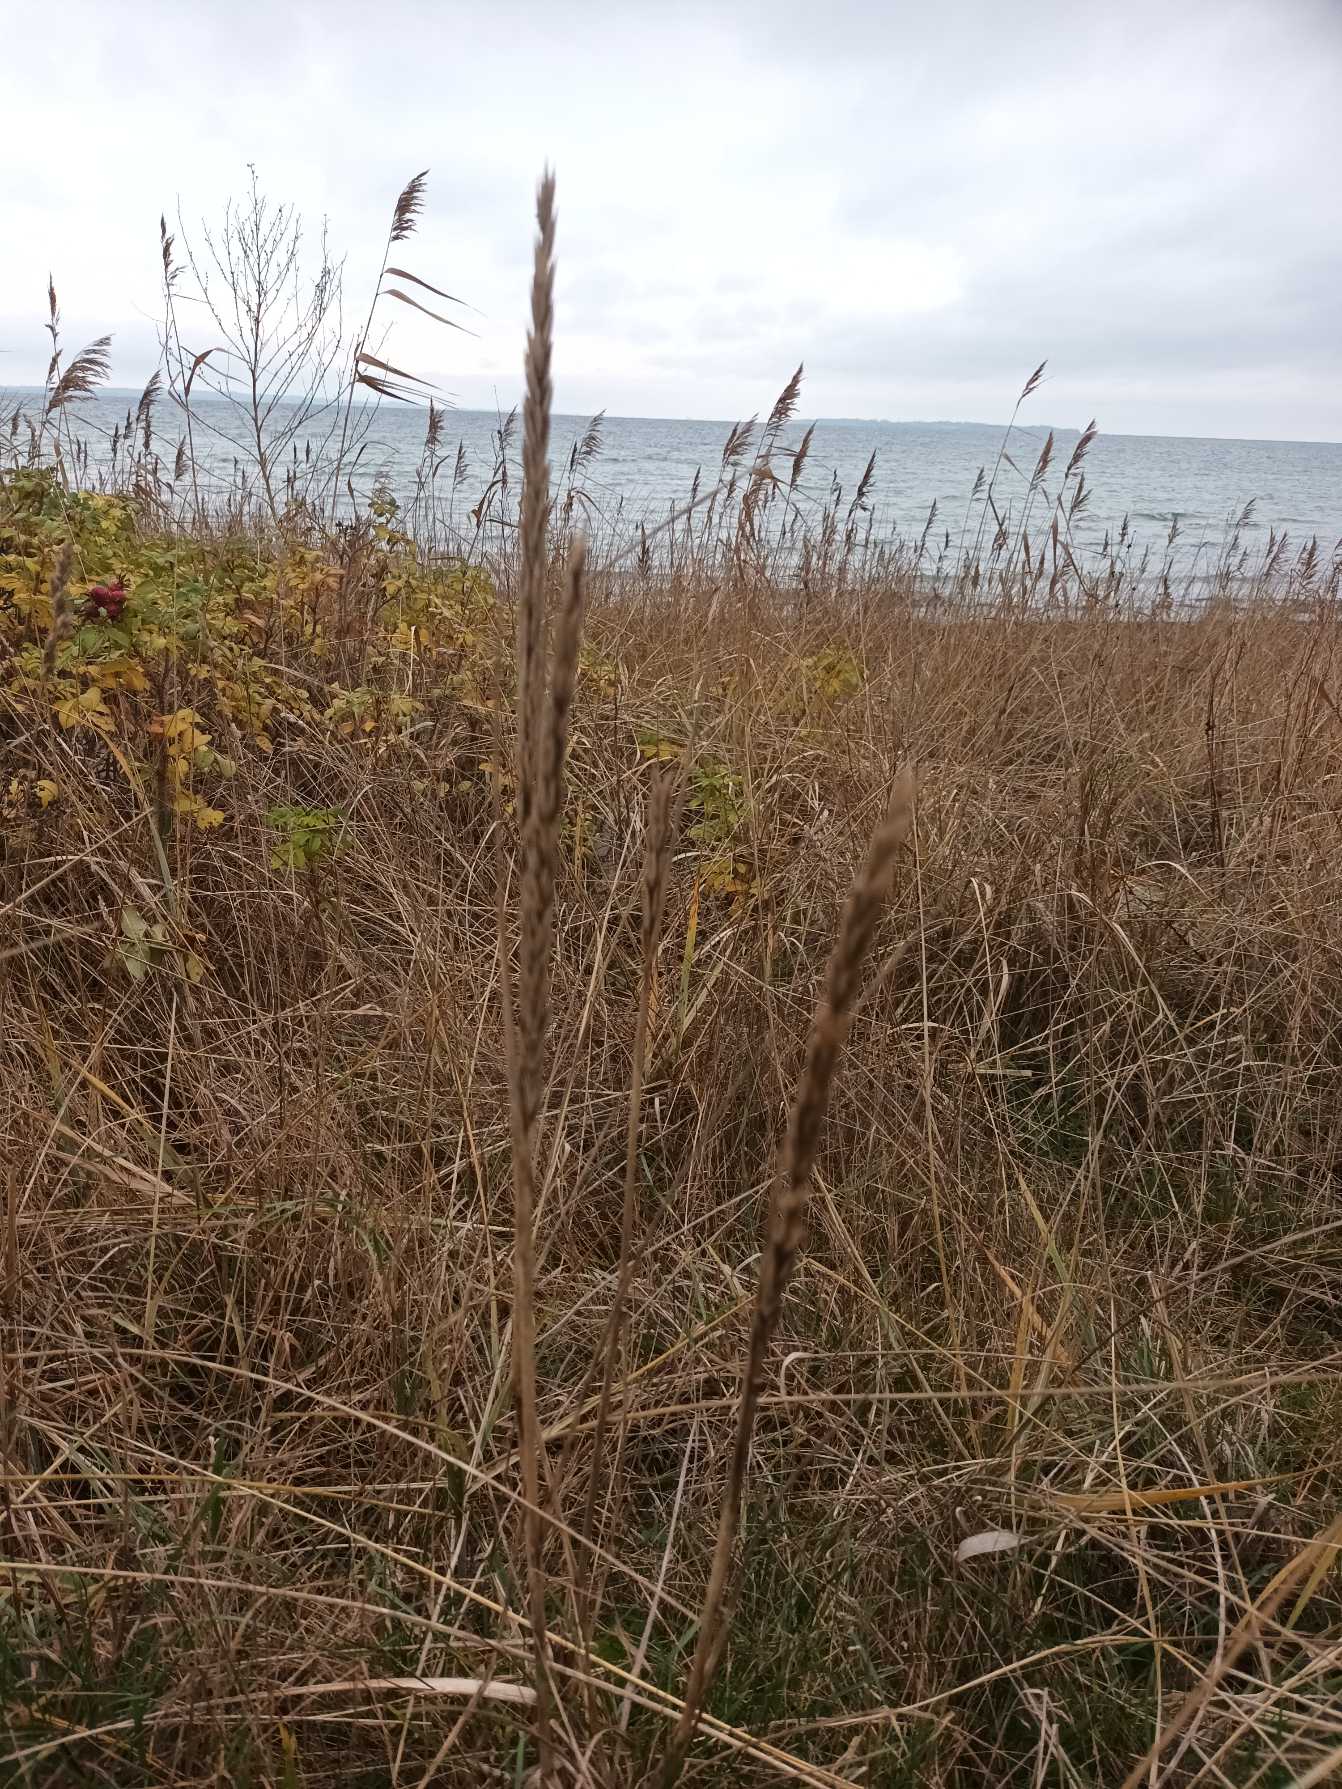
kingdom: Plantae
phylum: Tracheophyta
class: Liliopsida
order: Poales
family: Poaceae
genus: Leymus
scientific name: Leymus arenarius
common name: Marehalm
